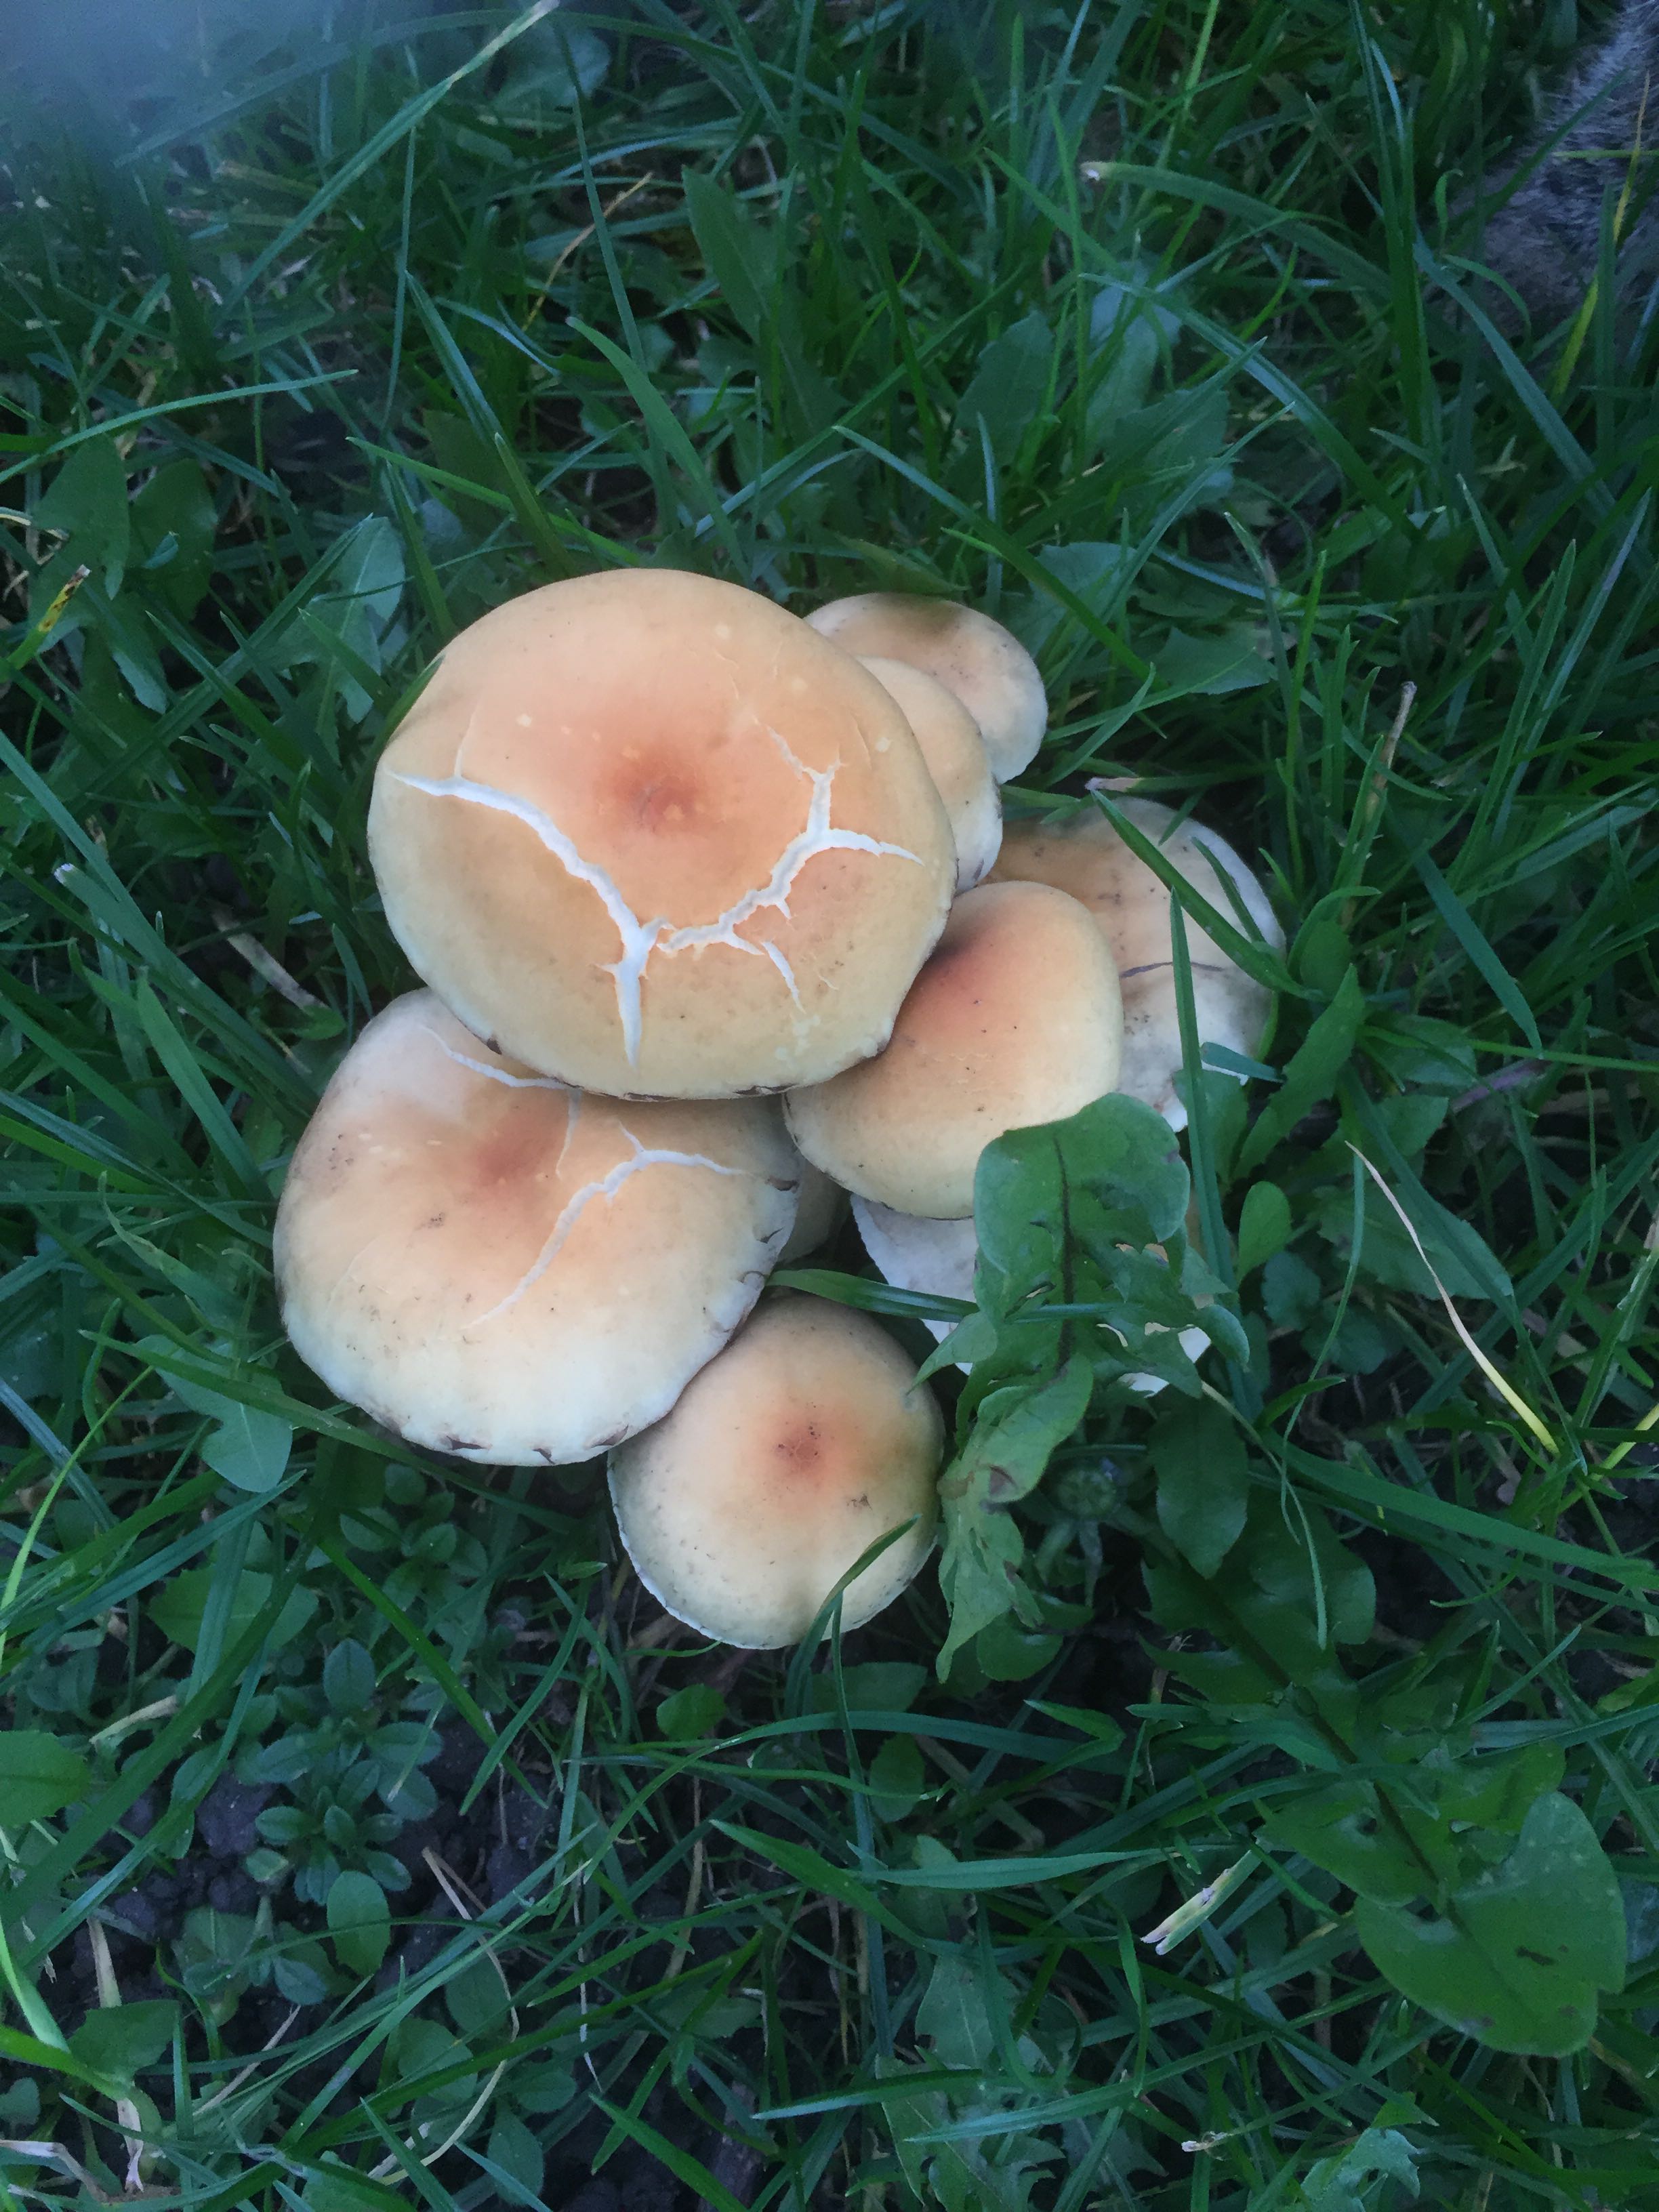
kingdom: Fungi
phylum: Basidiomycota
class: Agaricomycetes
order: Agaricales
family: Strophariaceae
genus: Hypholoma
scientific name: Hypholoma fasciculare
